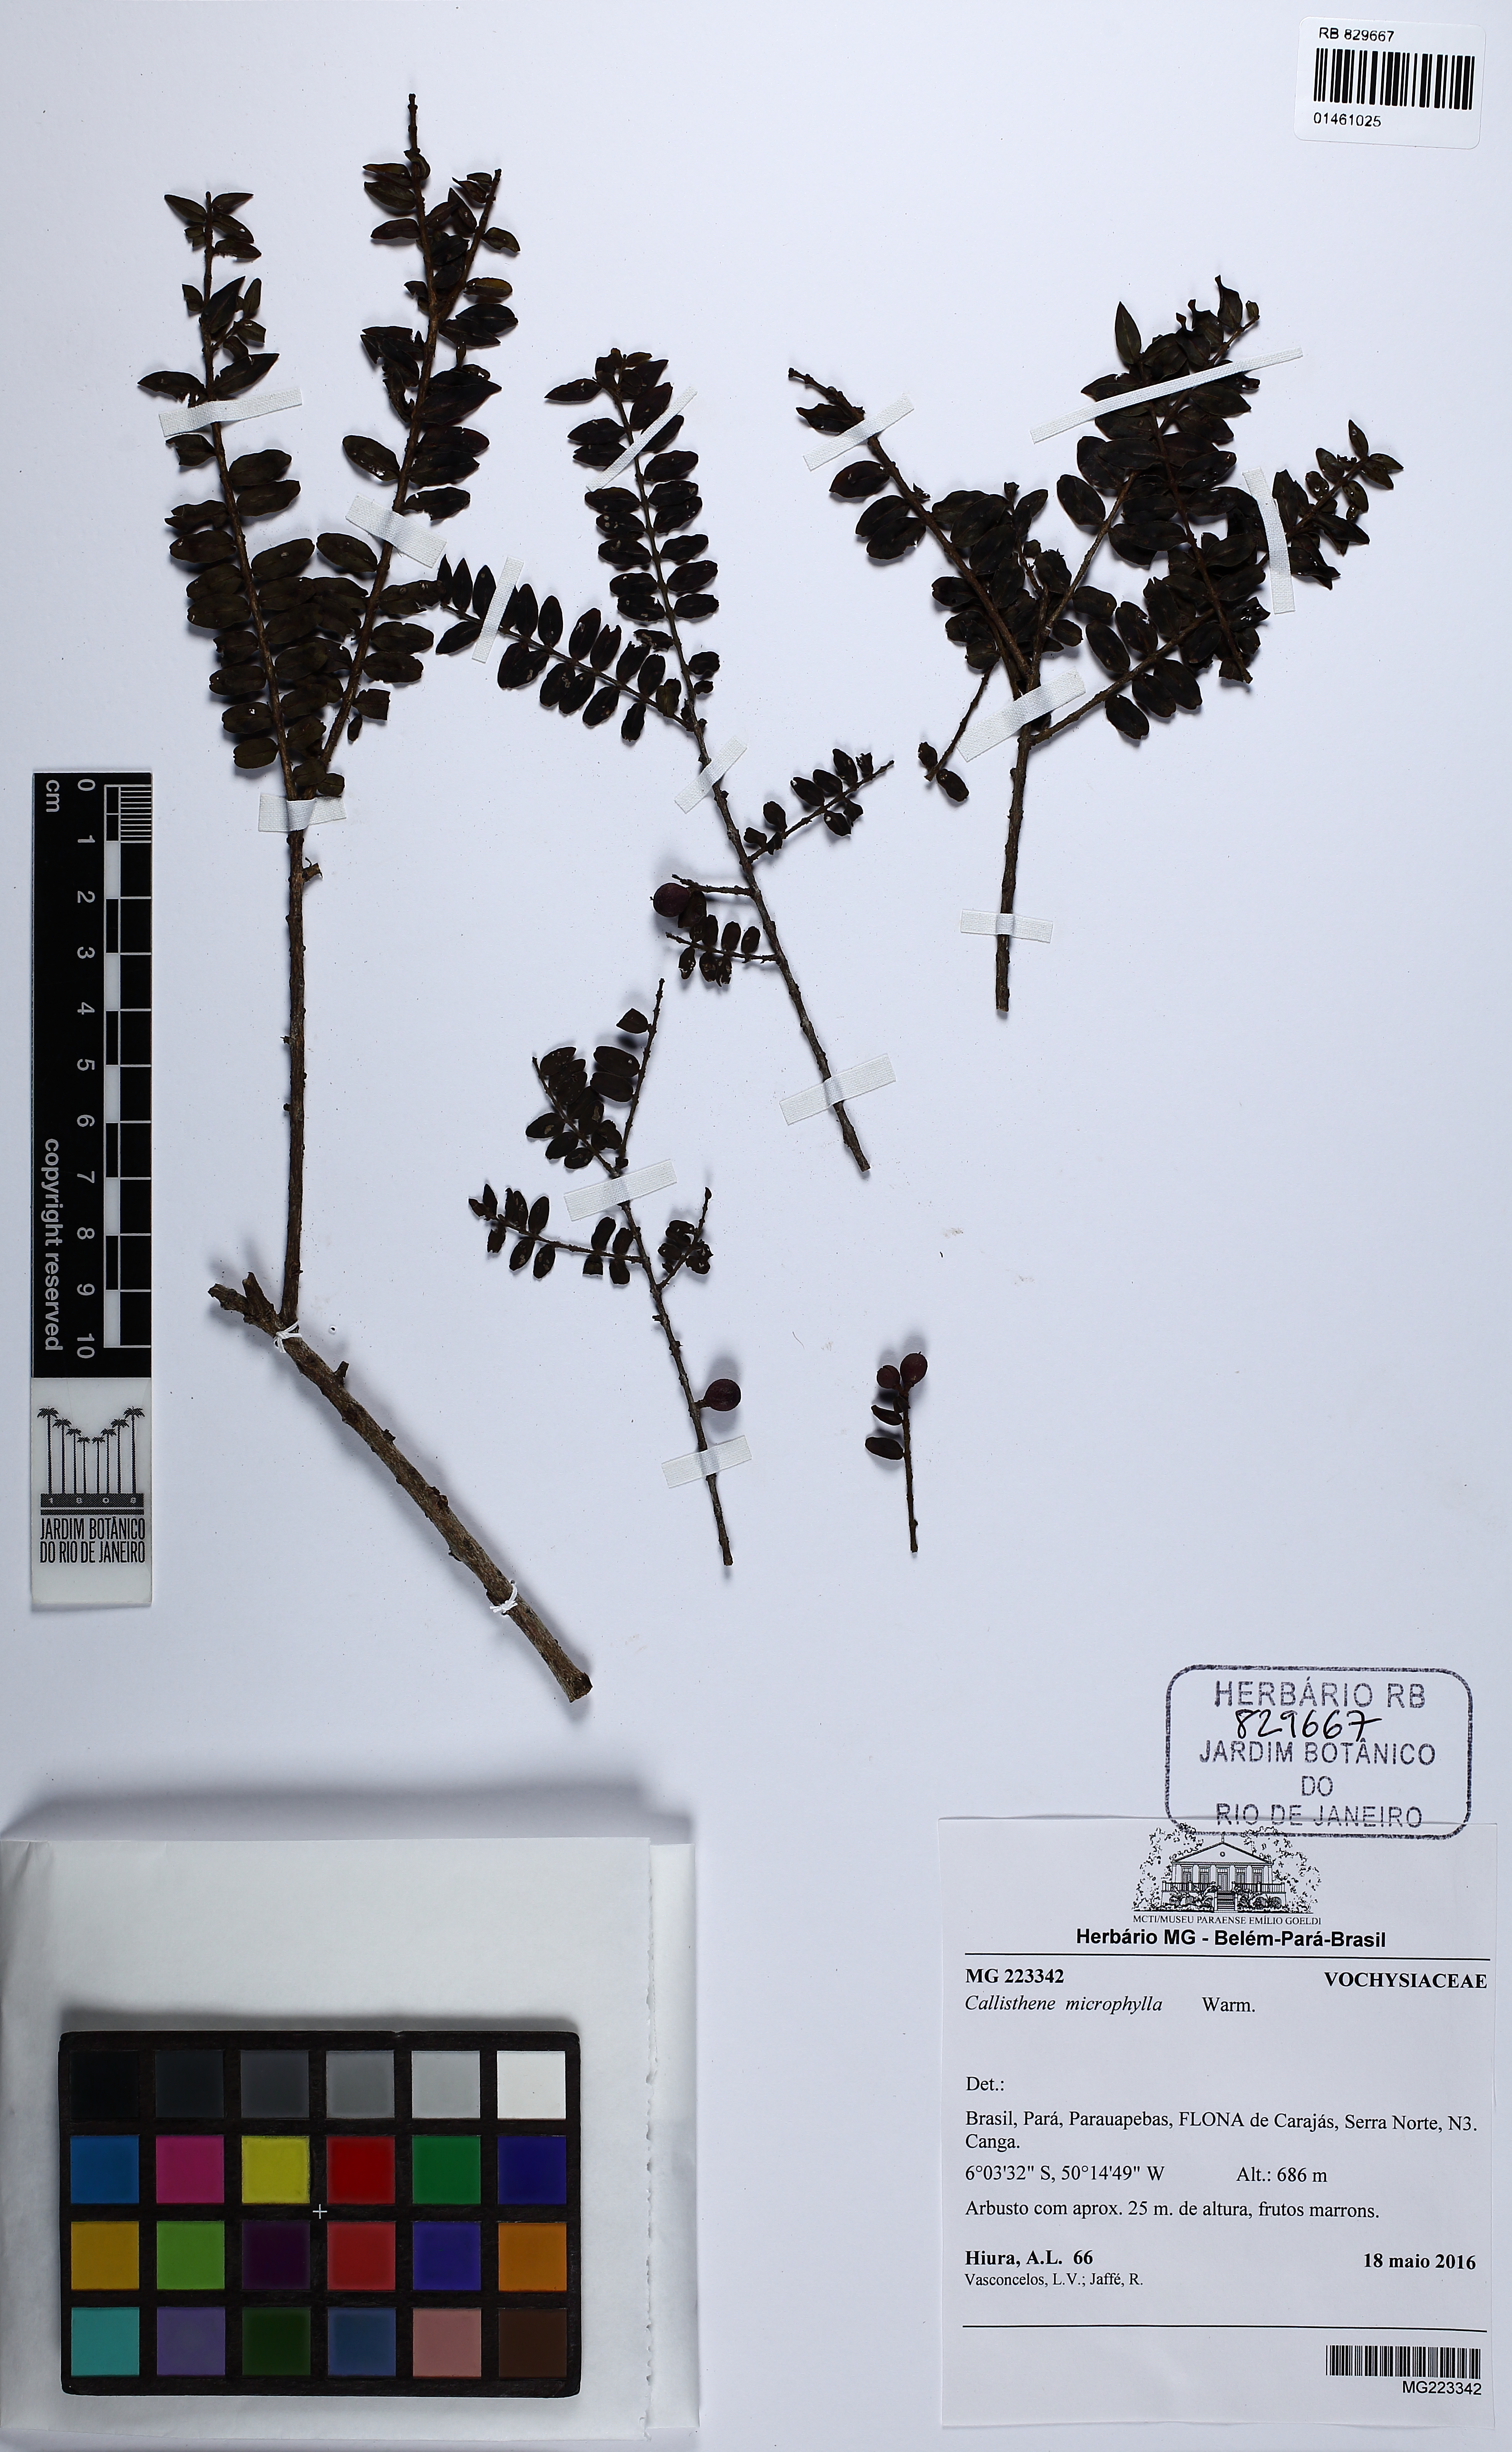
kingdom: Plantae
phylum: Tracheophyta
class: Magnoliopsida
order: Myrtales
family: Vochysiaceae
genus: Callisthene
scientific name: Callisthene microphylla
